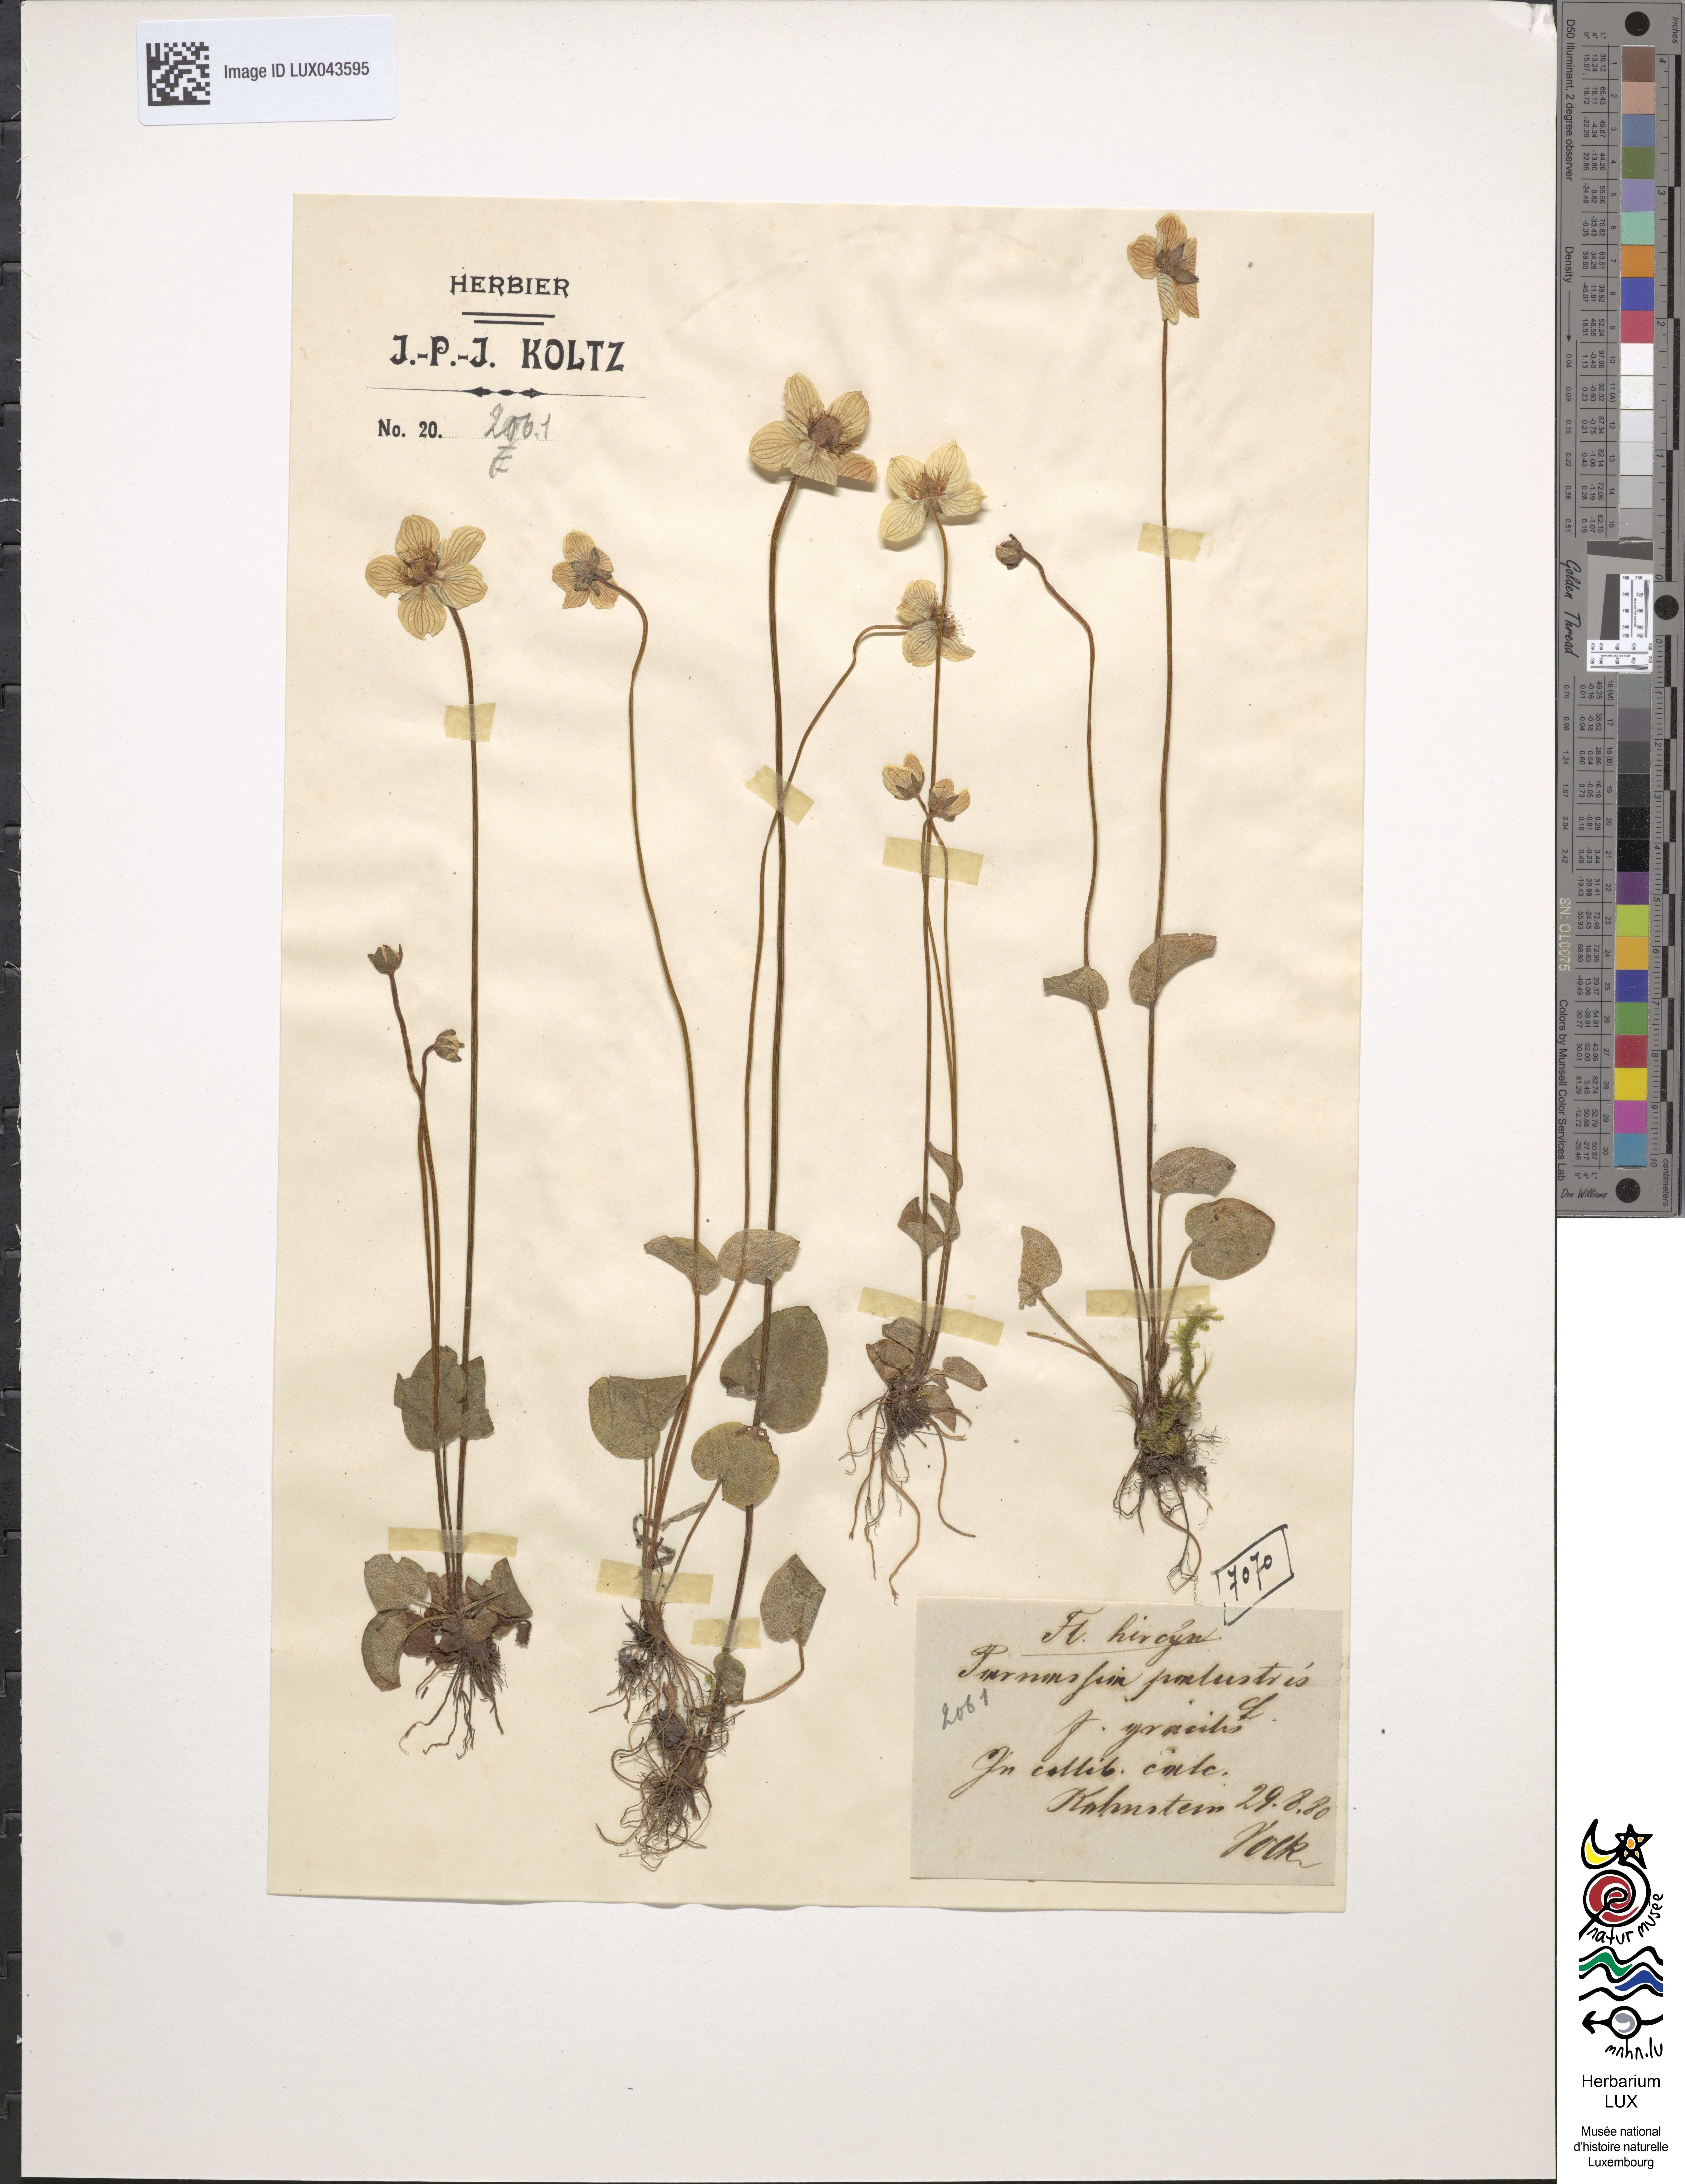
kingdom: Plantae
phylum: Tracheophyta
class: Magnoliopsida
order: Celastrales
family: Parnassiaceae
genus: Parnassia
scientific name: Parnassia palustris
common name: Grass-of-parnassus
